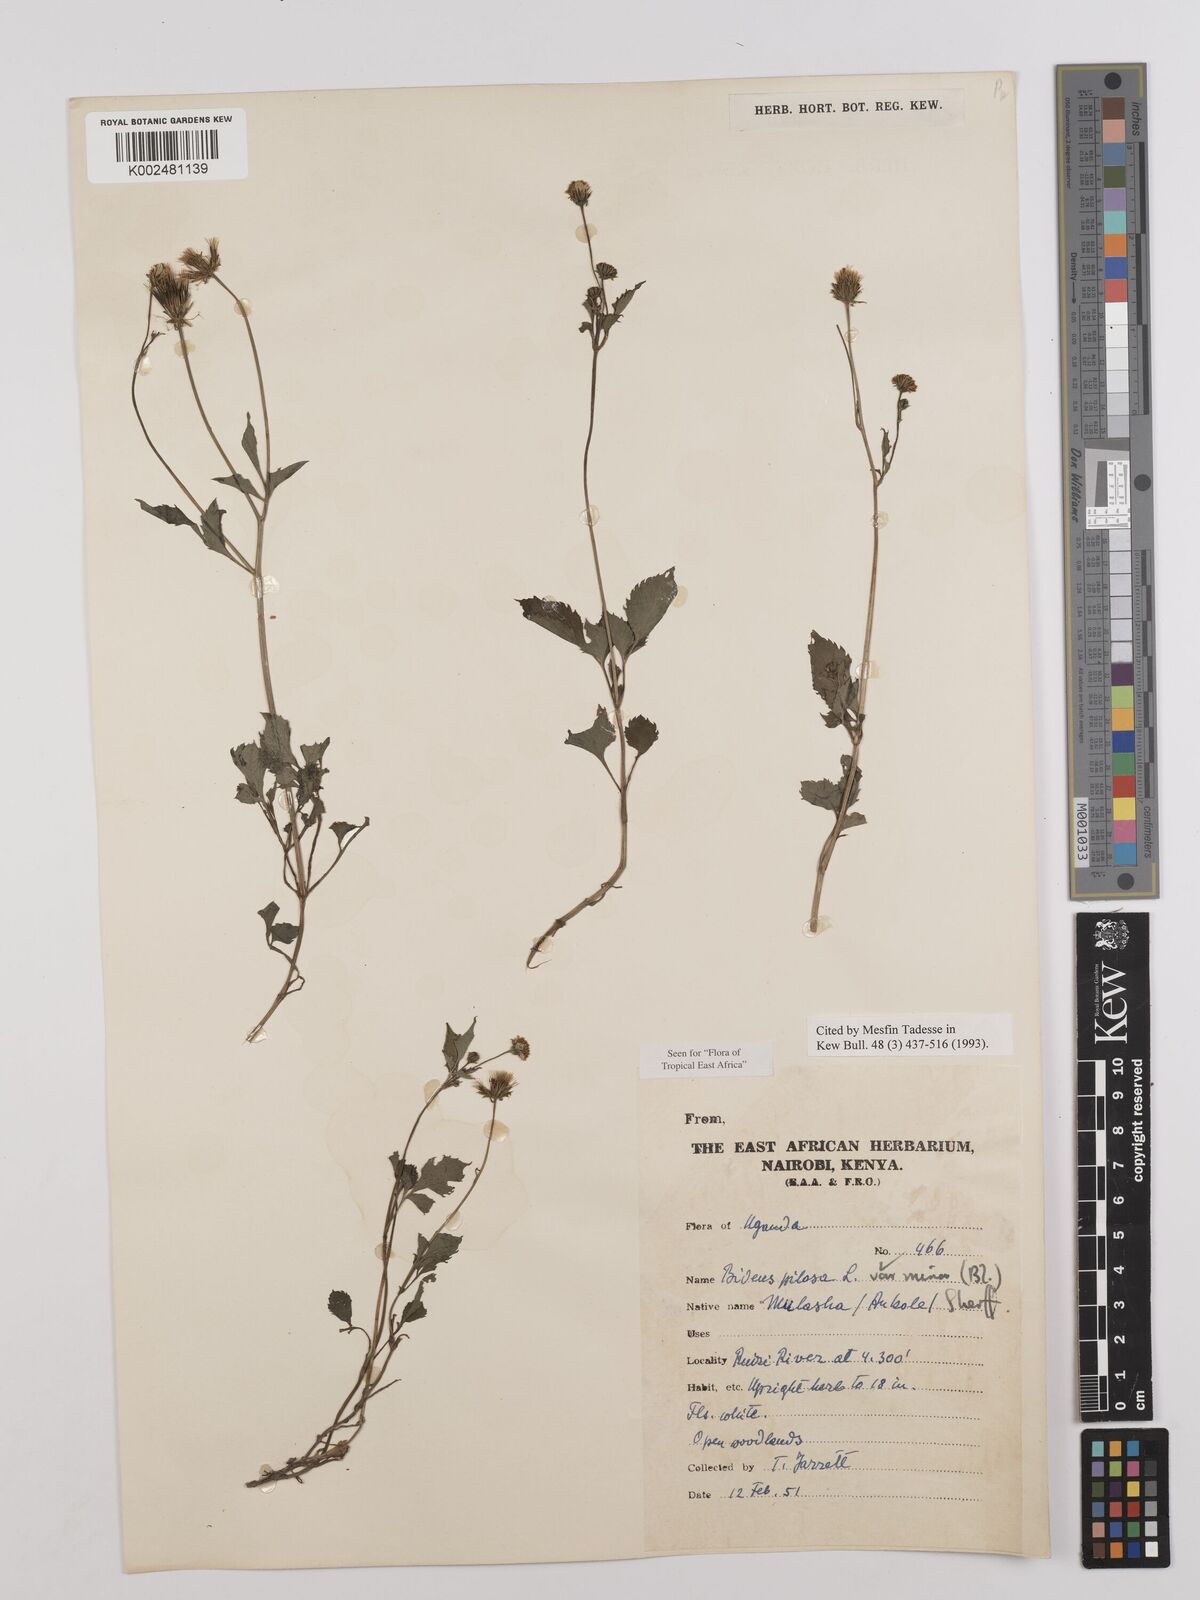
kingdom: Plantae
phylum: Tracheophyta
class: Magnoliopsida
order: Asterales
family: Asteraceae
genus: Bidens
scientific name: Bidens pilosa
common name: Black-jack
